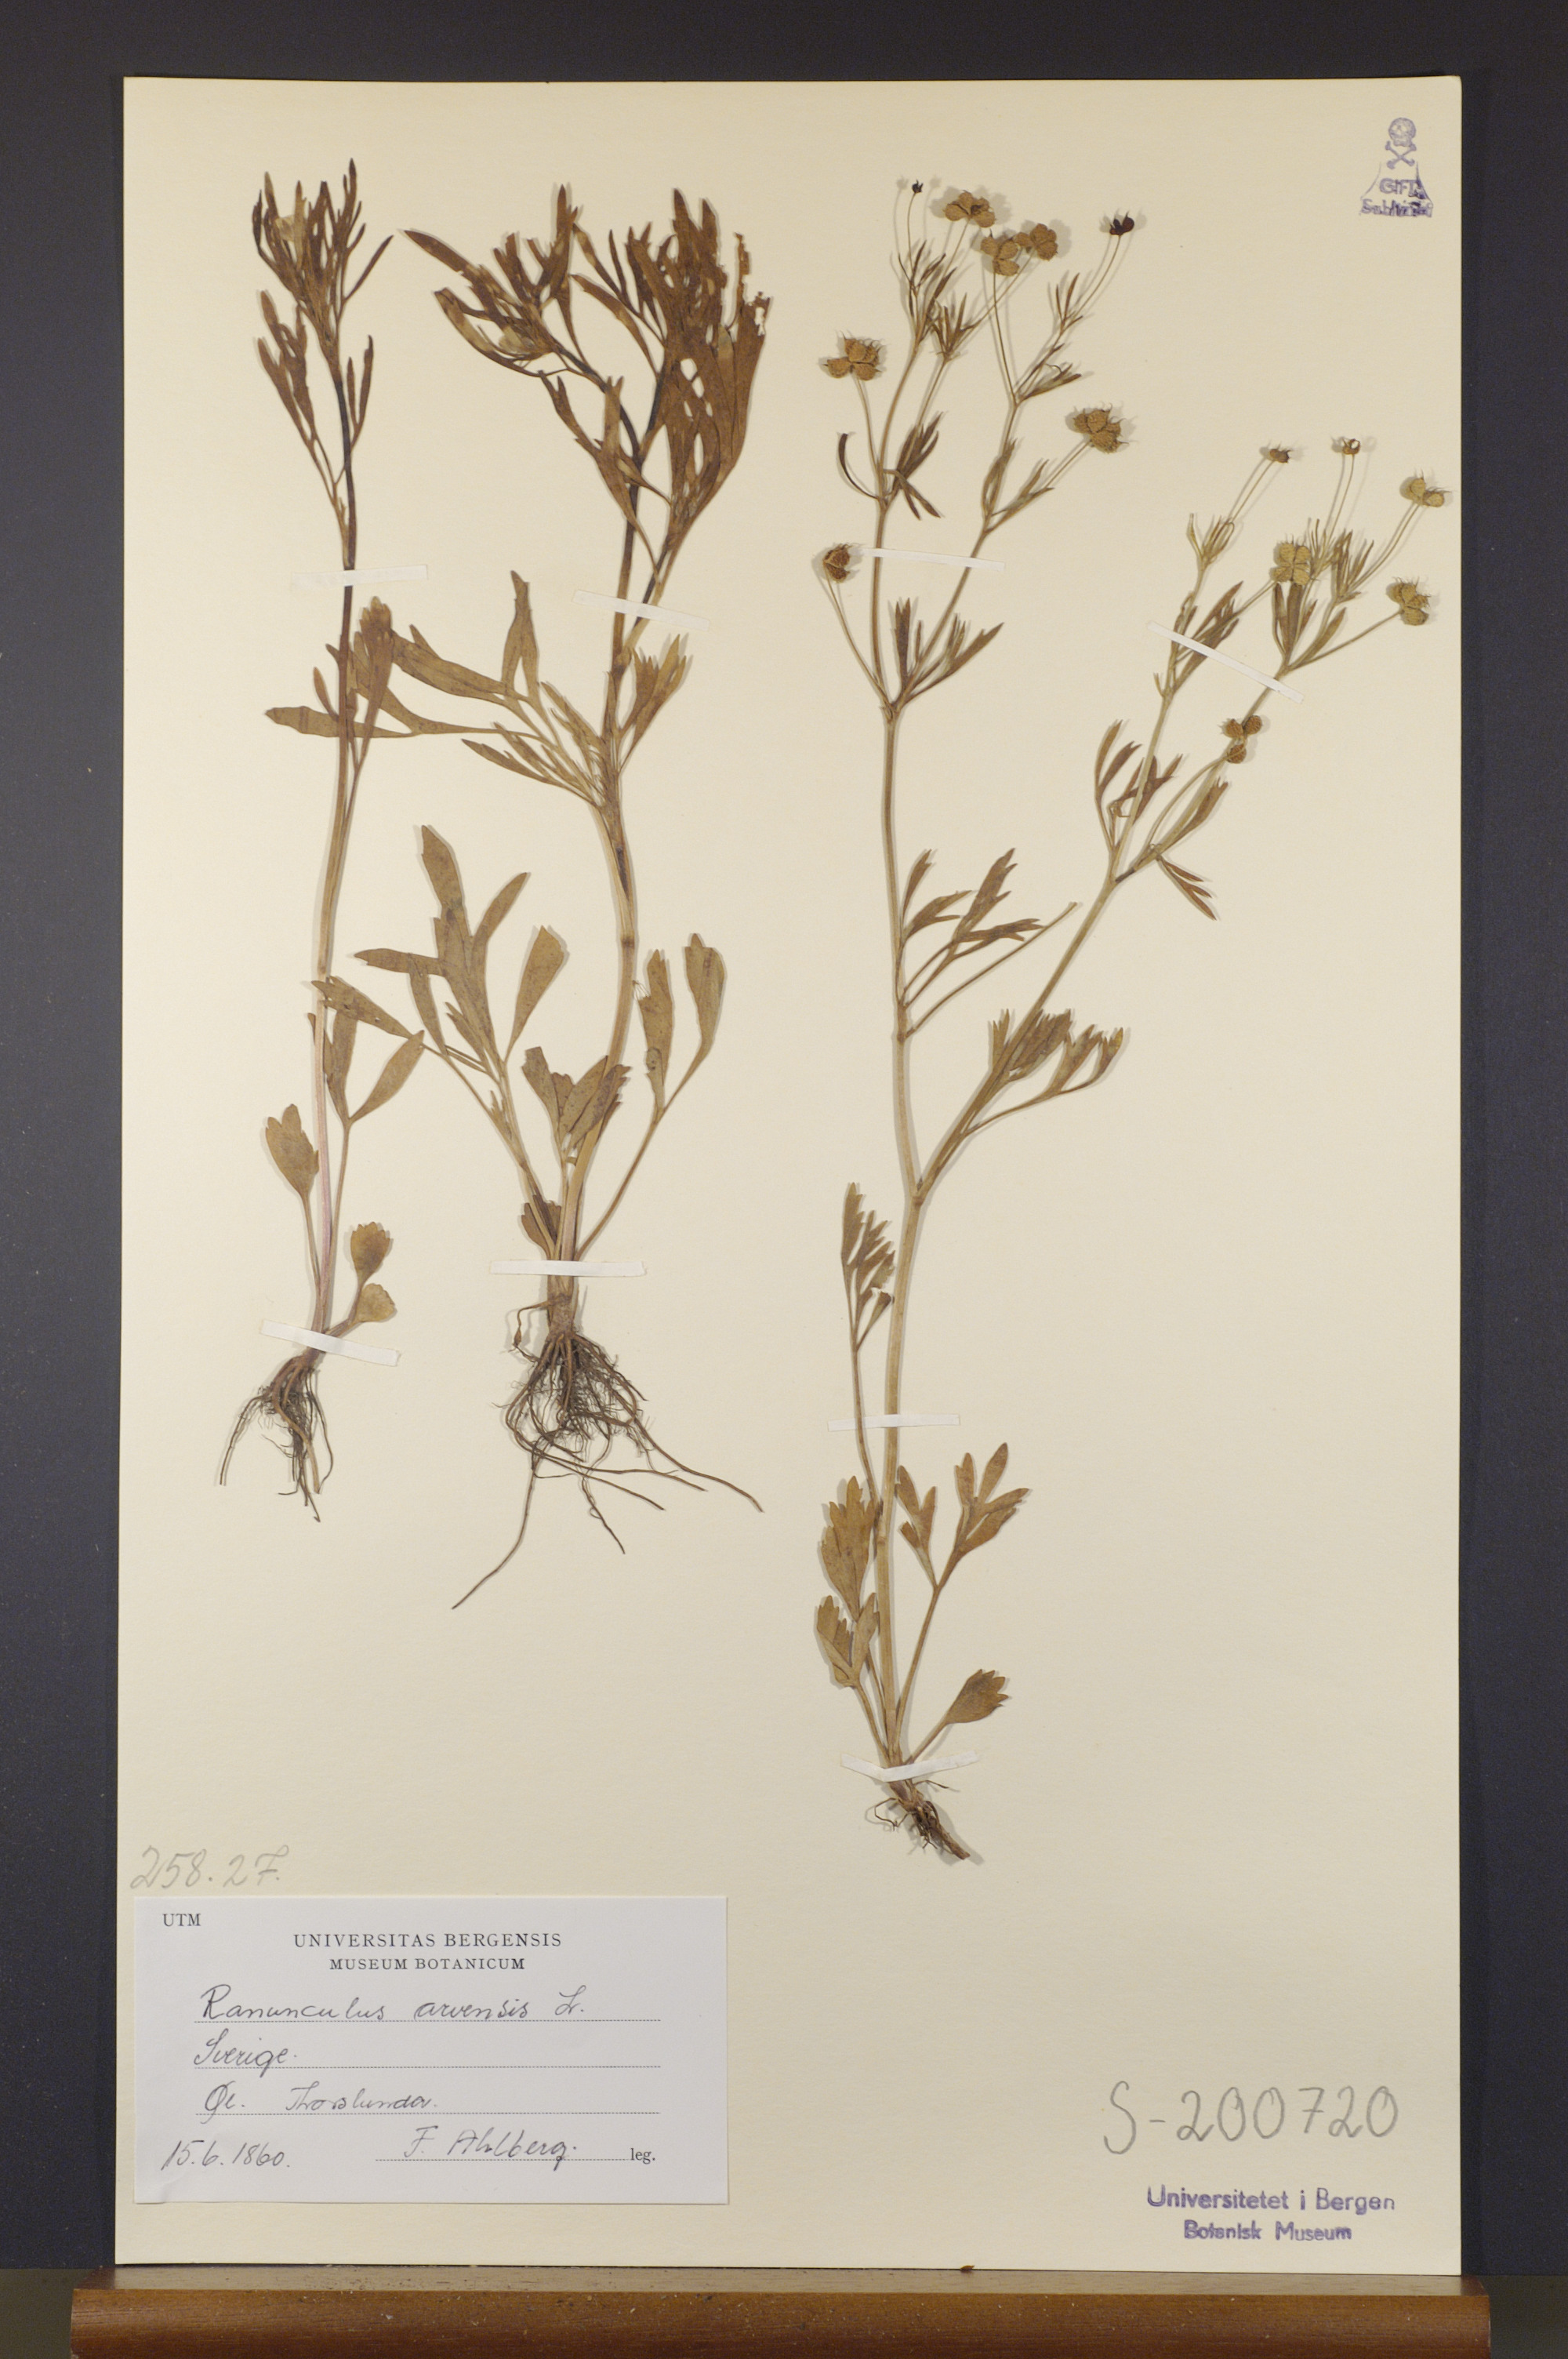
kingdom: Plantae
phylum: Tracheophyta
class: Magnoliopsida
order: Ranunculales
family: Ranunculaceae
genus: Ranunculus
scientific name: Ranunculus arvensis
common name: Corn buttercup
